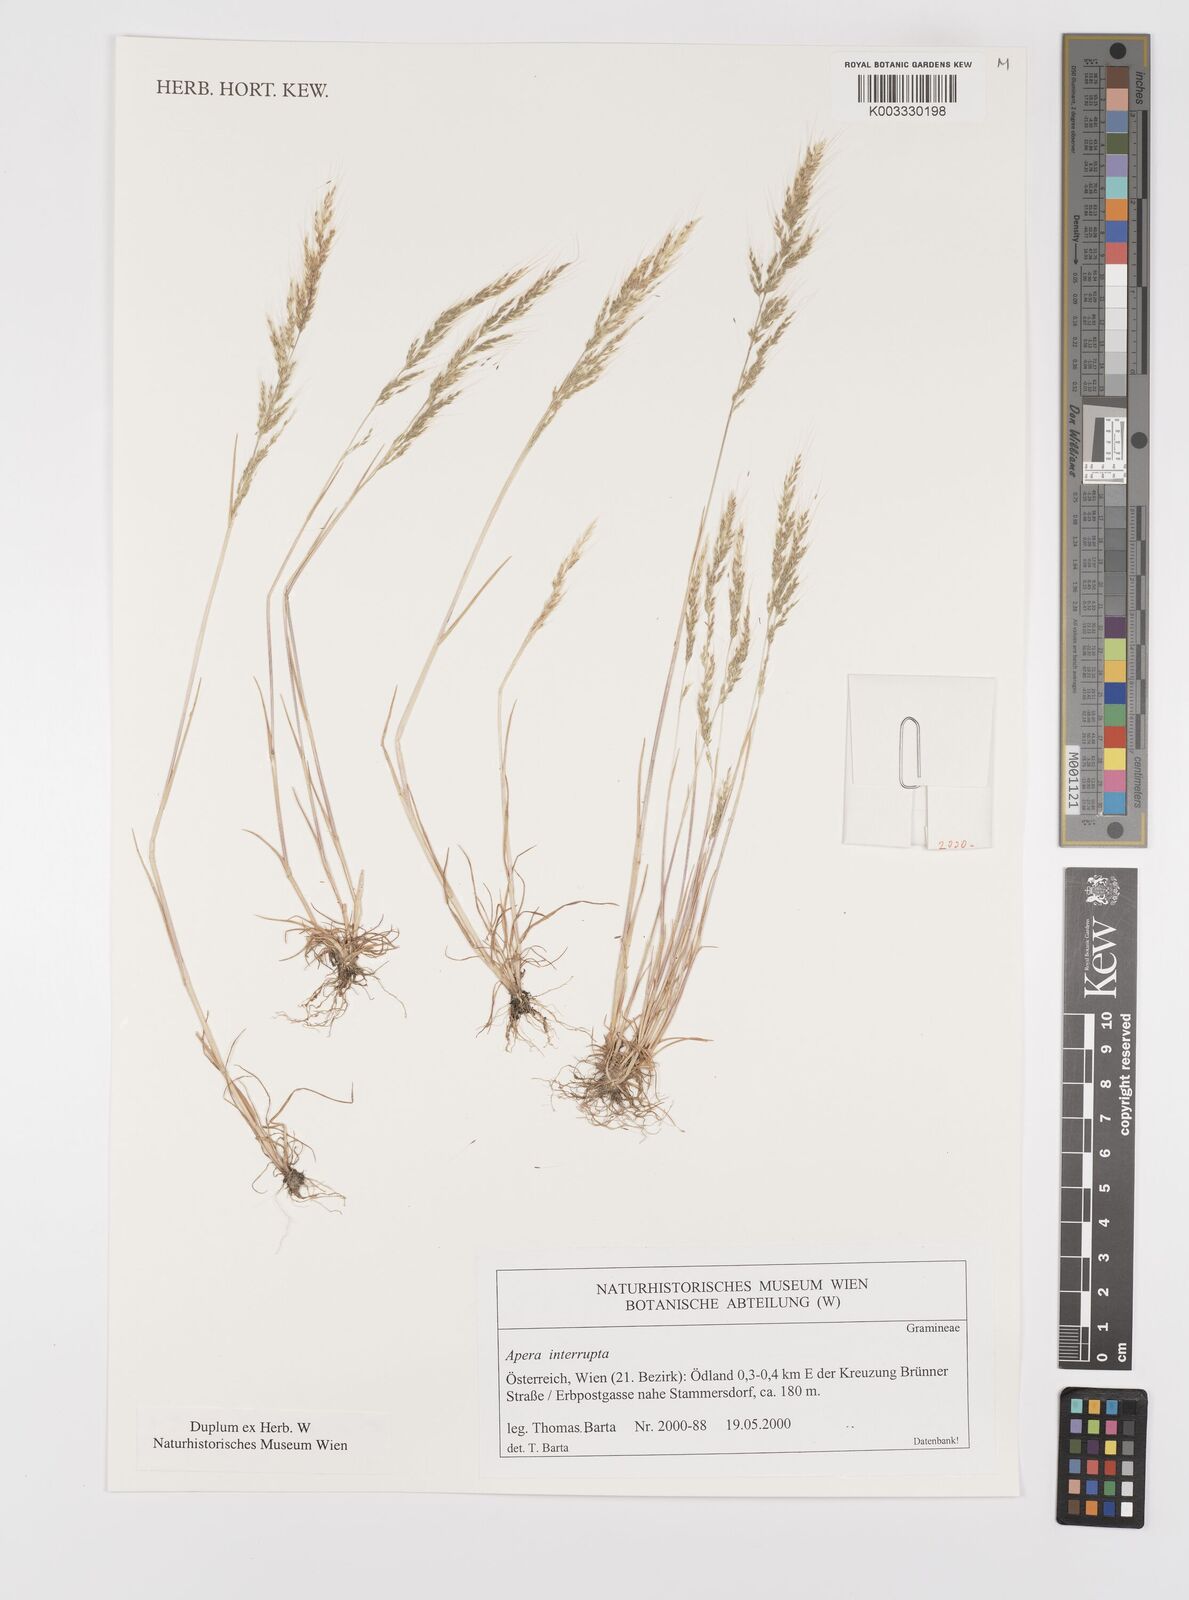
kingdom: Plantae
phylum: Tracheophyta
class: Liliopsida
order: Poales
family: Poaceae
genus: Apera
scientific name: Apera interrupta
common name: Dense silky-bent
